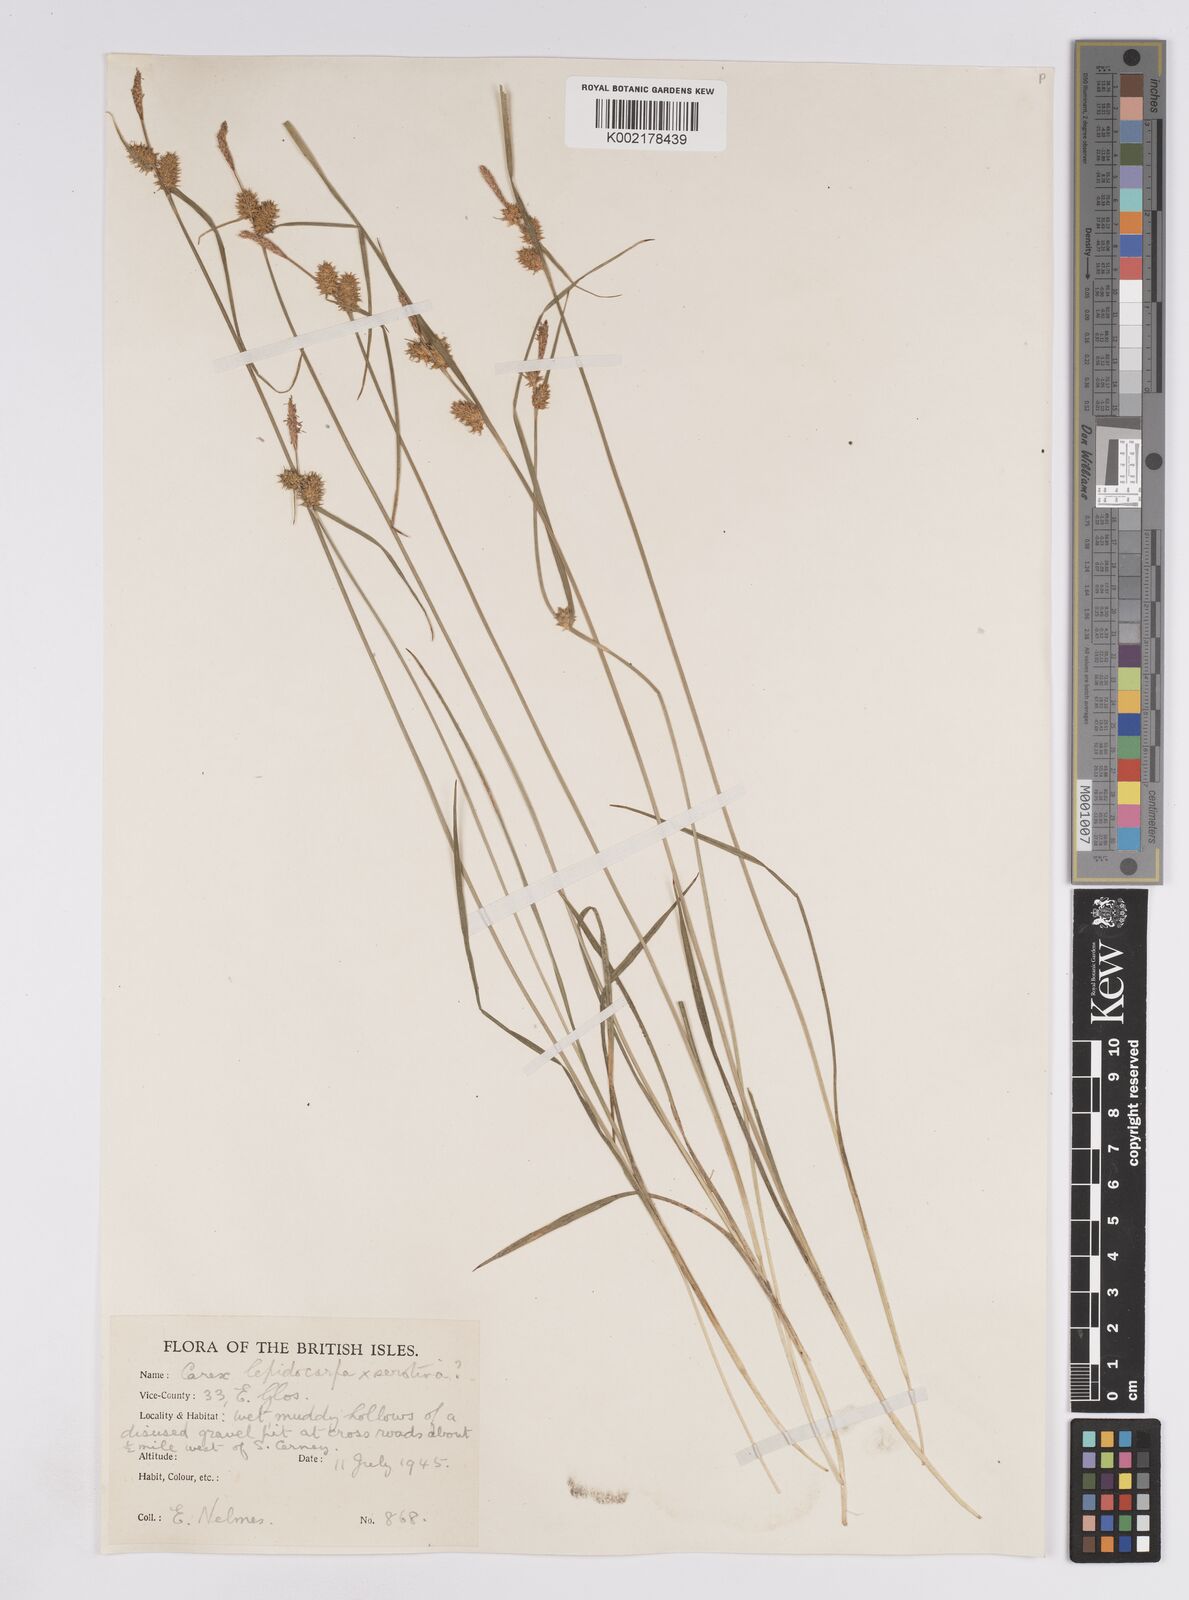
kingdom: Plantae
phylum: Tracheophyta
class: Liliopsida
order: Poales
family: Cyperaceae
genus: Carex
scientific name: Carex lepidocarpa
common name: Long-stalked yellow-sedge
